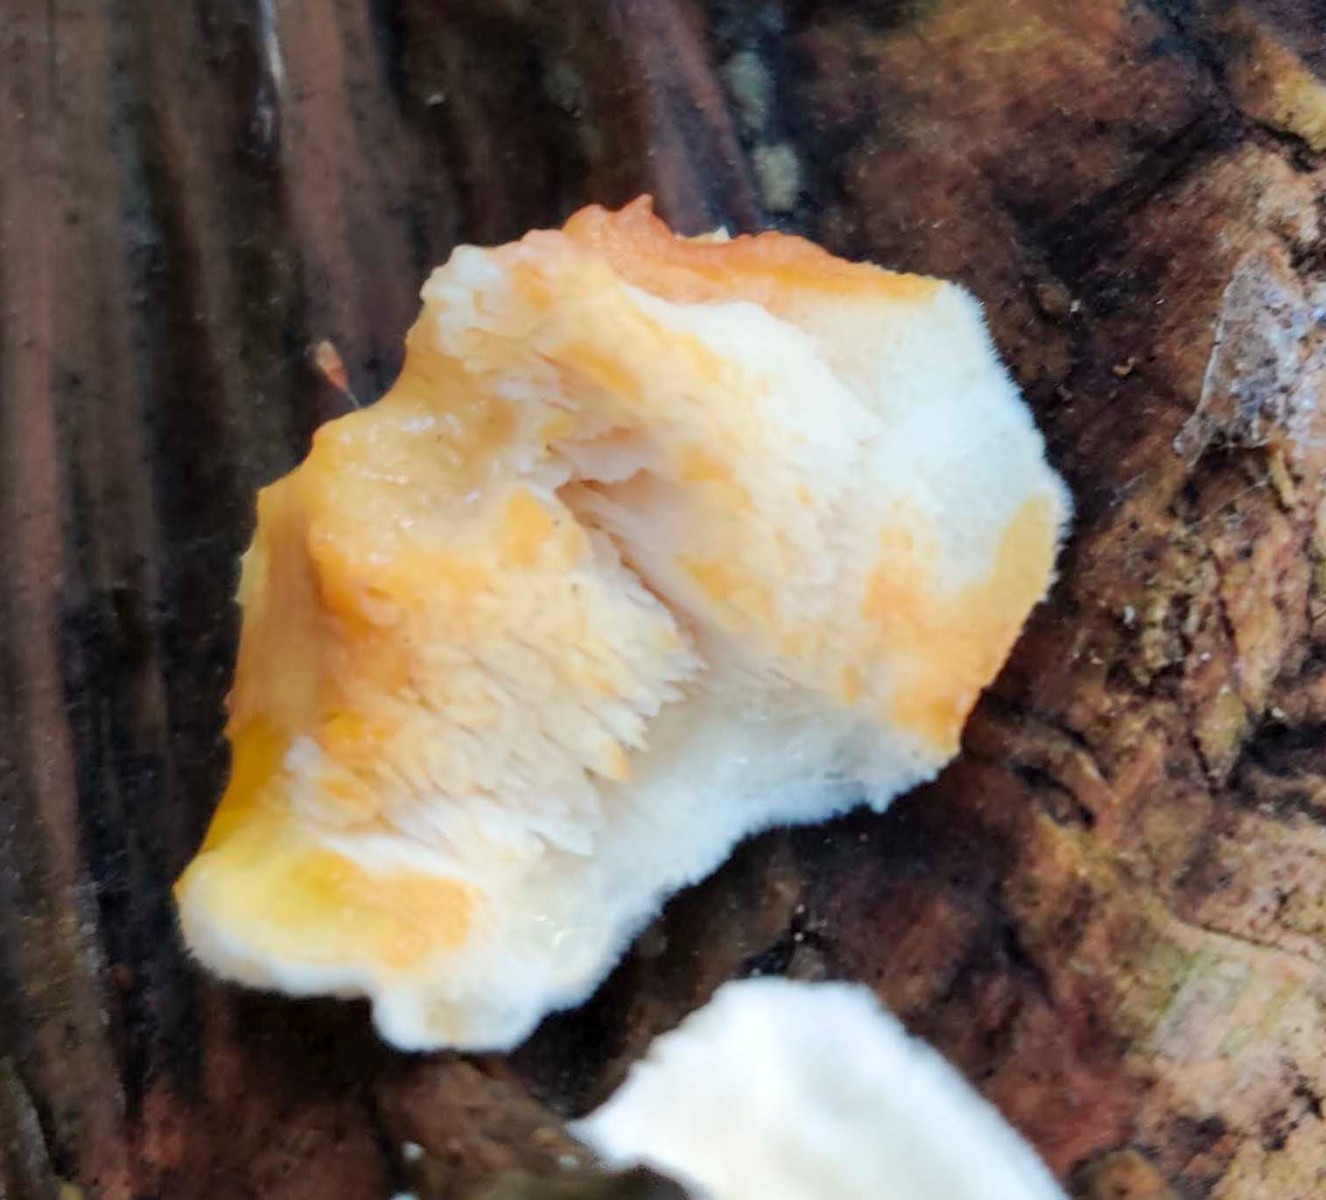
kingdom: Fungi
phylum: Basidiomycota
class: Agaricomycetes
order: Polyporales
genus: Fuscopostia
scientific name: Fuscopostia fragilis
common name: brunende kødporesvamp
